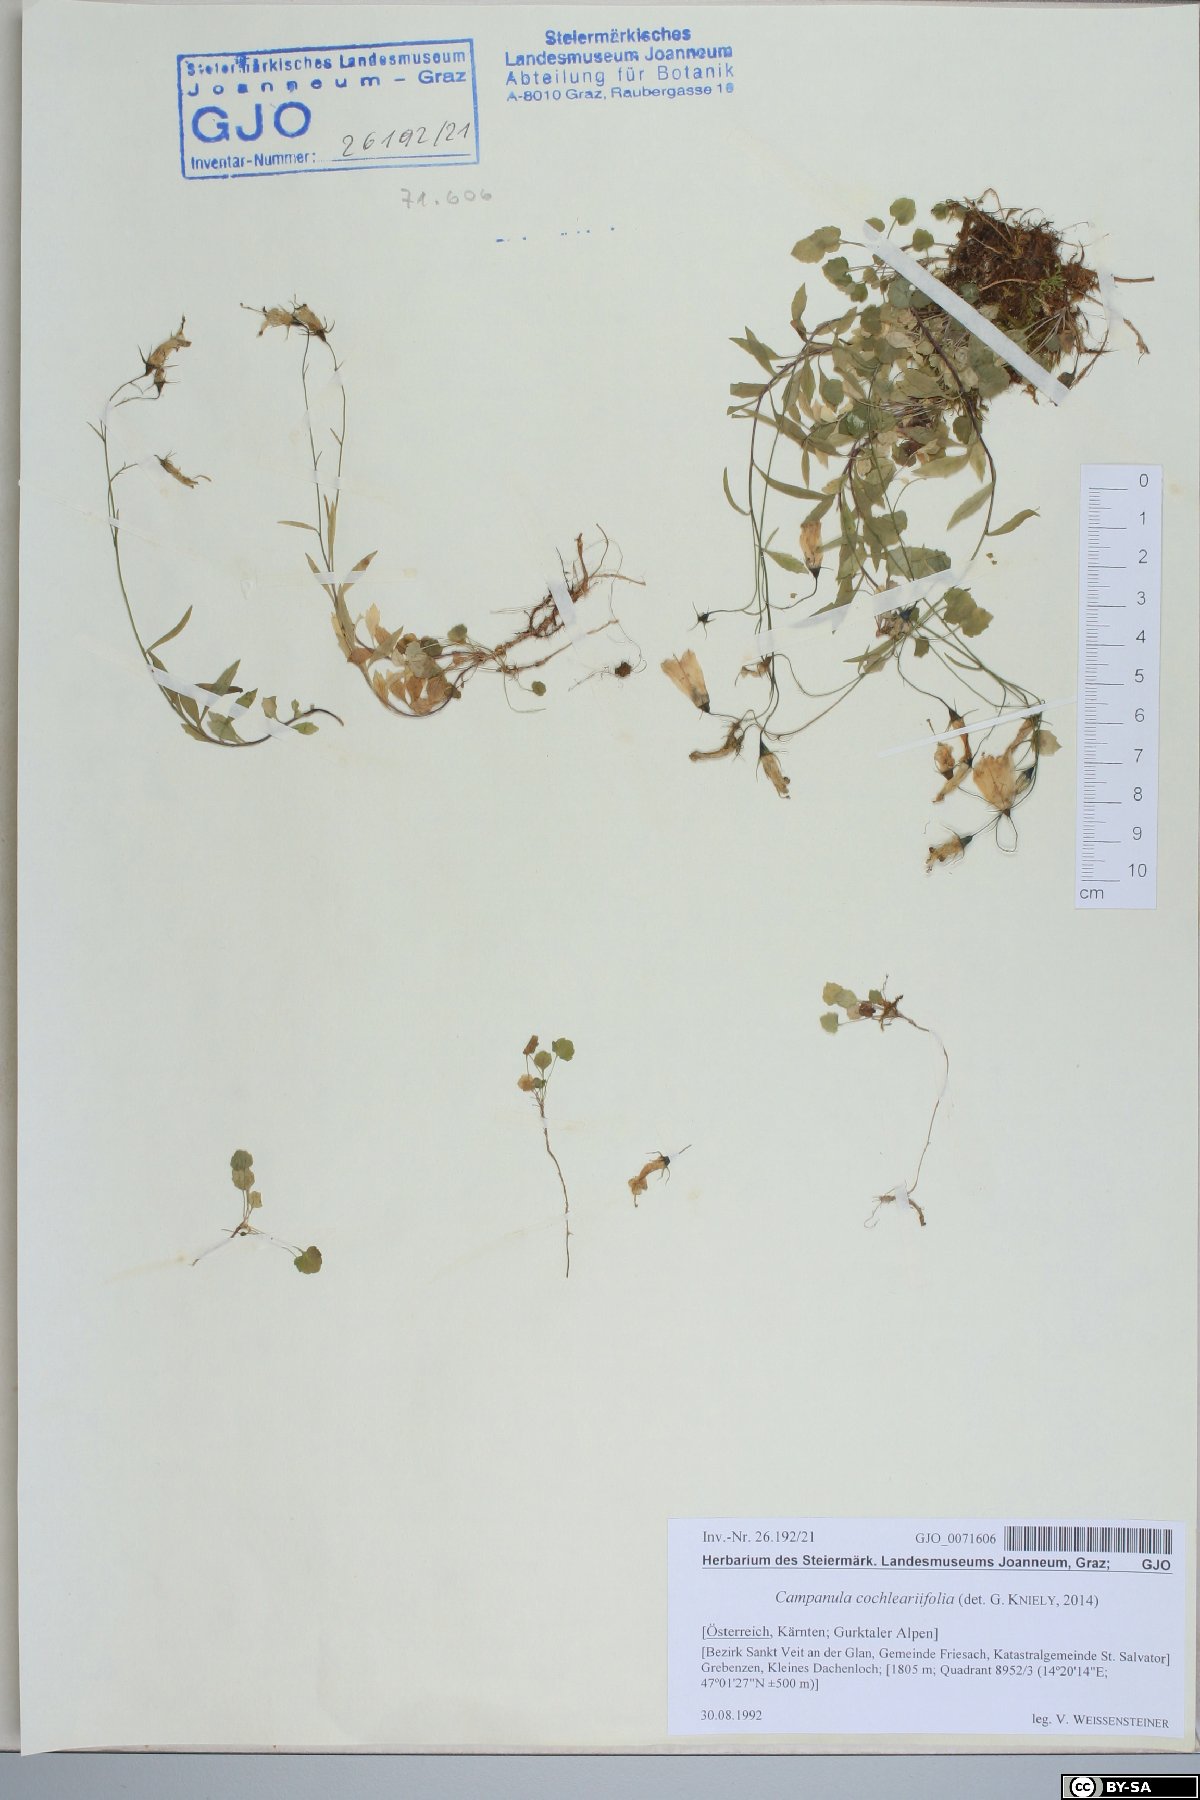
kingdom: Plantae
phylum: Tracheophyta
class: Magnoliopsida
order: Asterales
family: Campanulaceae
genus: Campanula
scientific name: Campanula cochleariifolia
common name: Fairies'-thimbles
